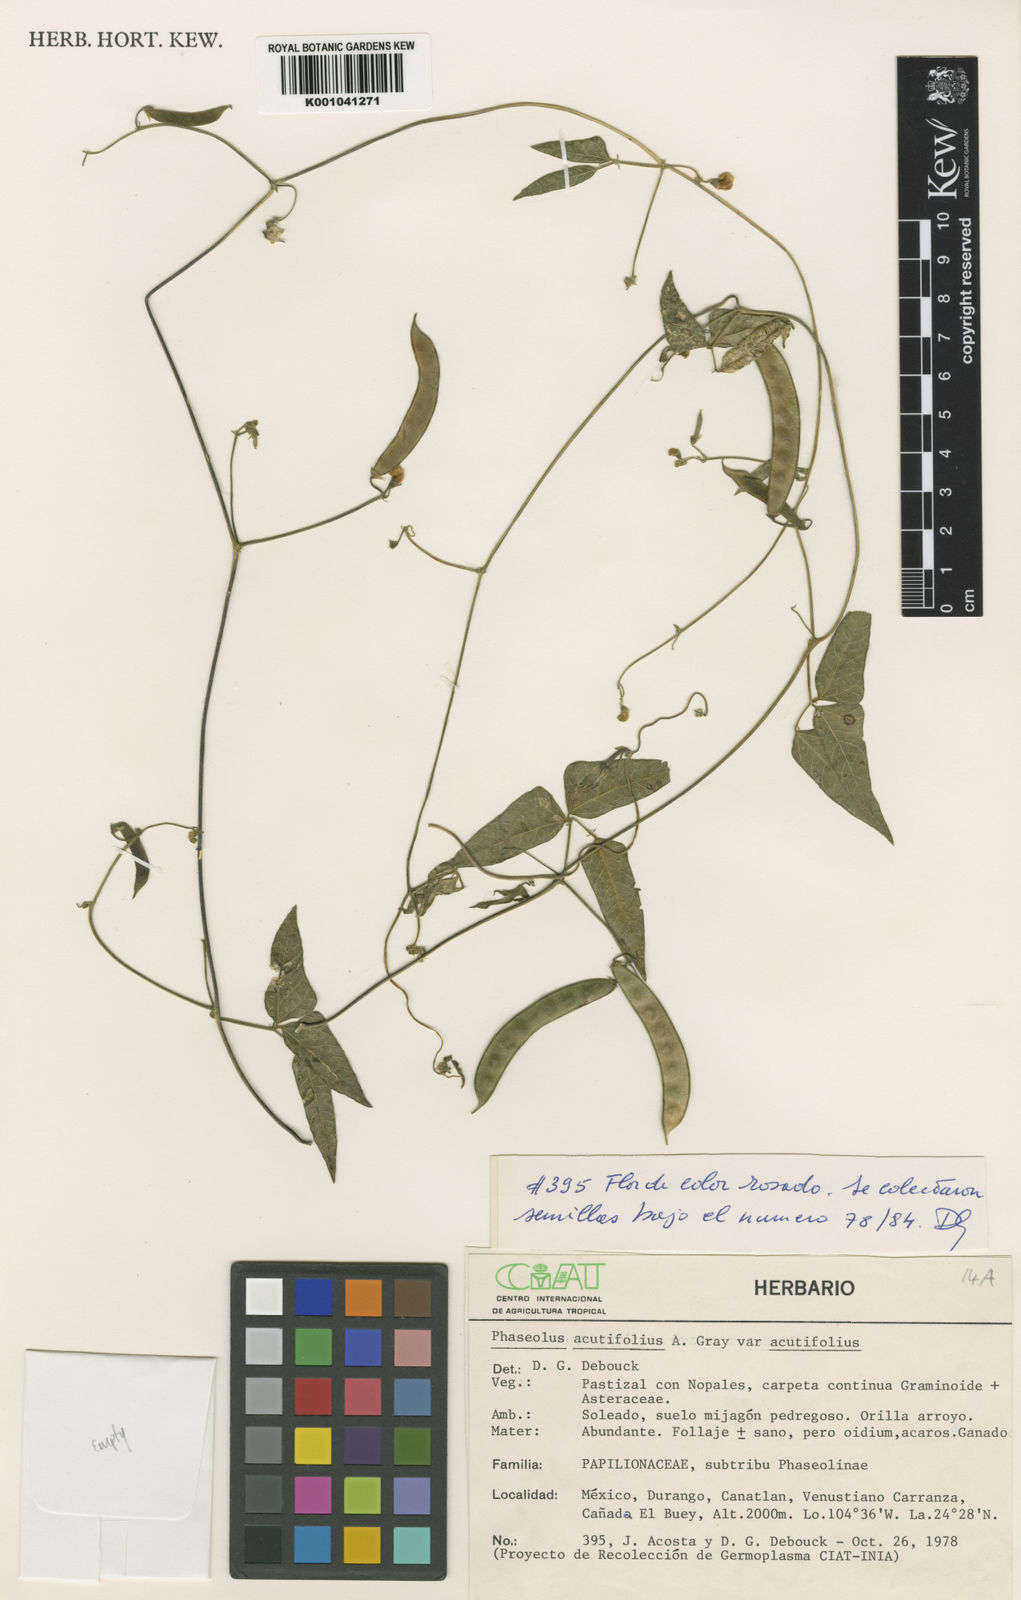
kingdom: Plantae
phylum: Tracheophyta
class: Magnoliopsida
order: Fabales
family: Fabaceae
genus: Phaseolus
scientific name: Phaseolus acutifolius
